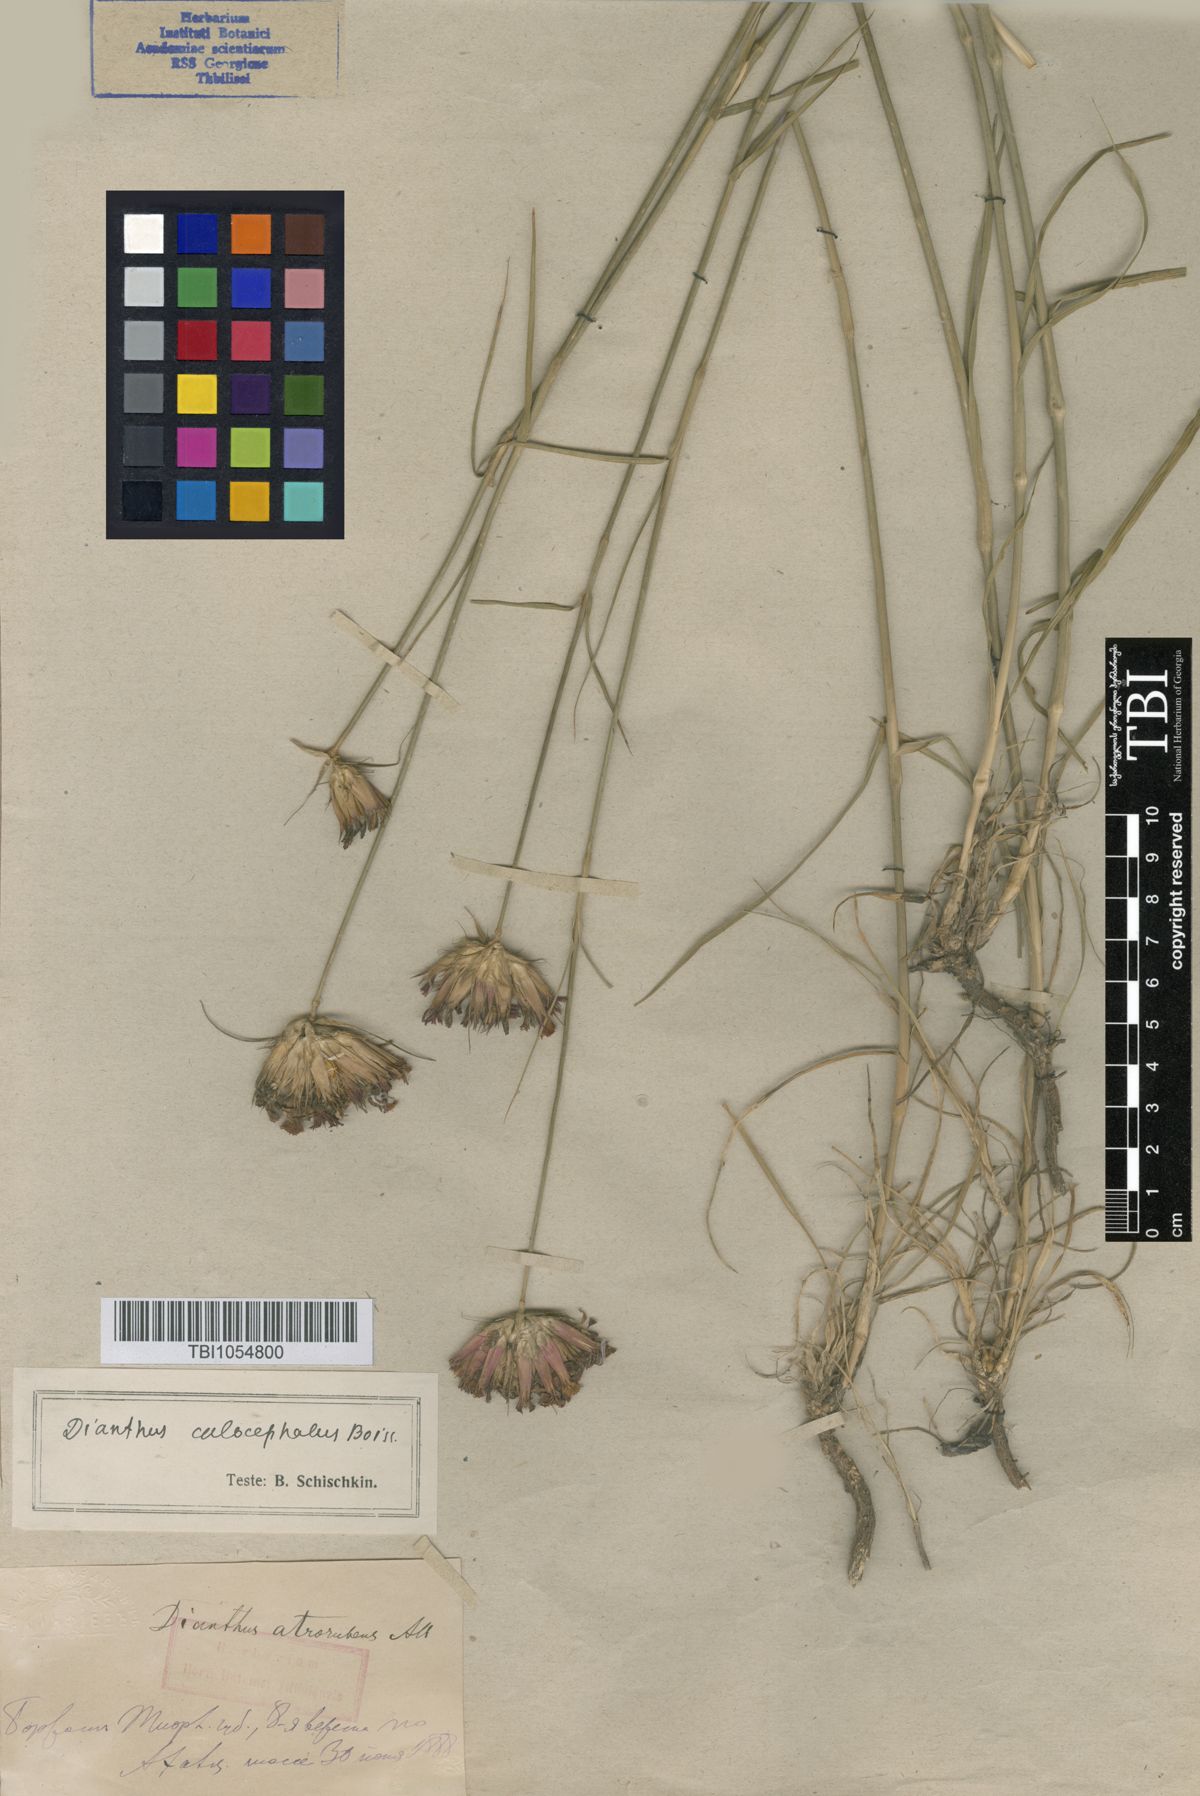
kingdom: Plantae
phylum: Tracheophyta
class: Magnoliopsida
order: Caryophyllales
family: Caryophyllaceae
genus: Dianthus
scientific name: Dianthus cruentus
